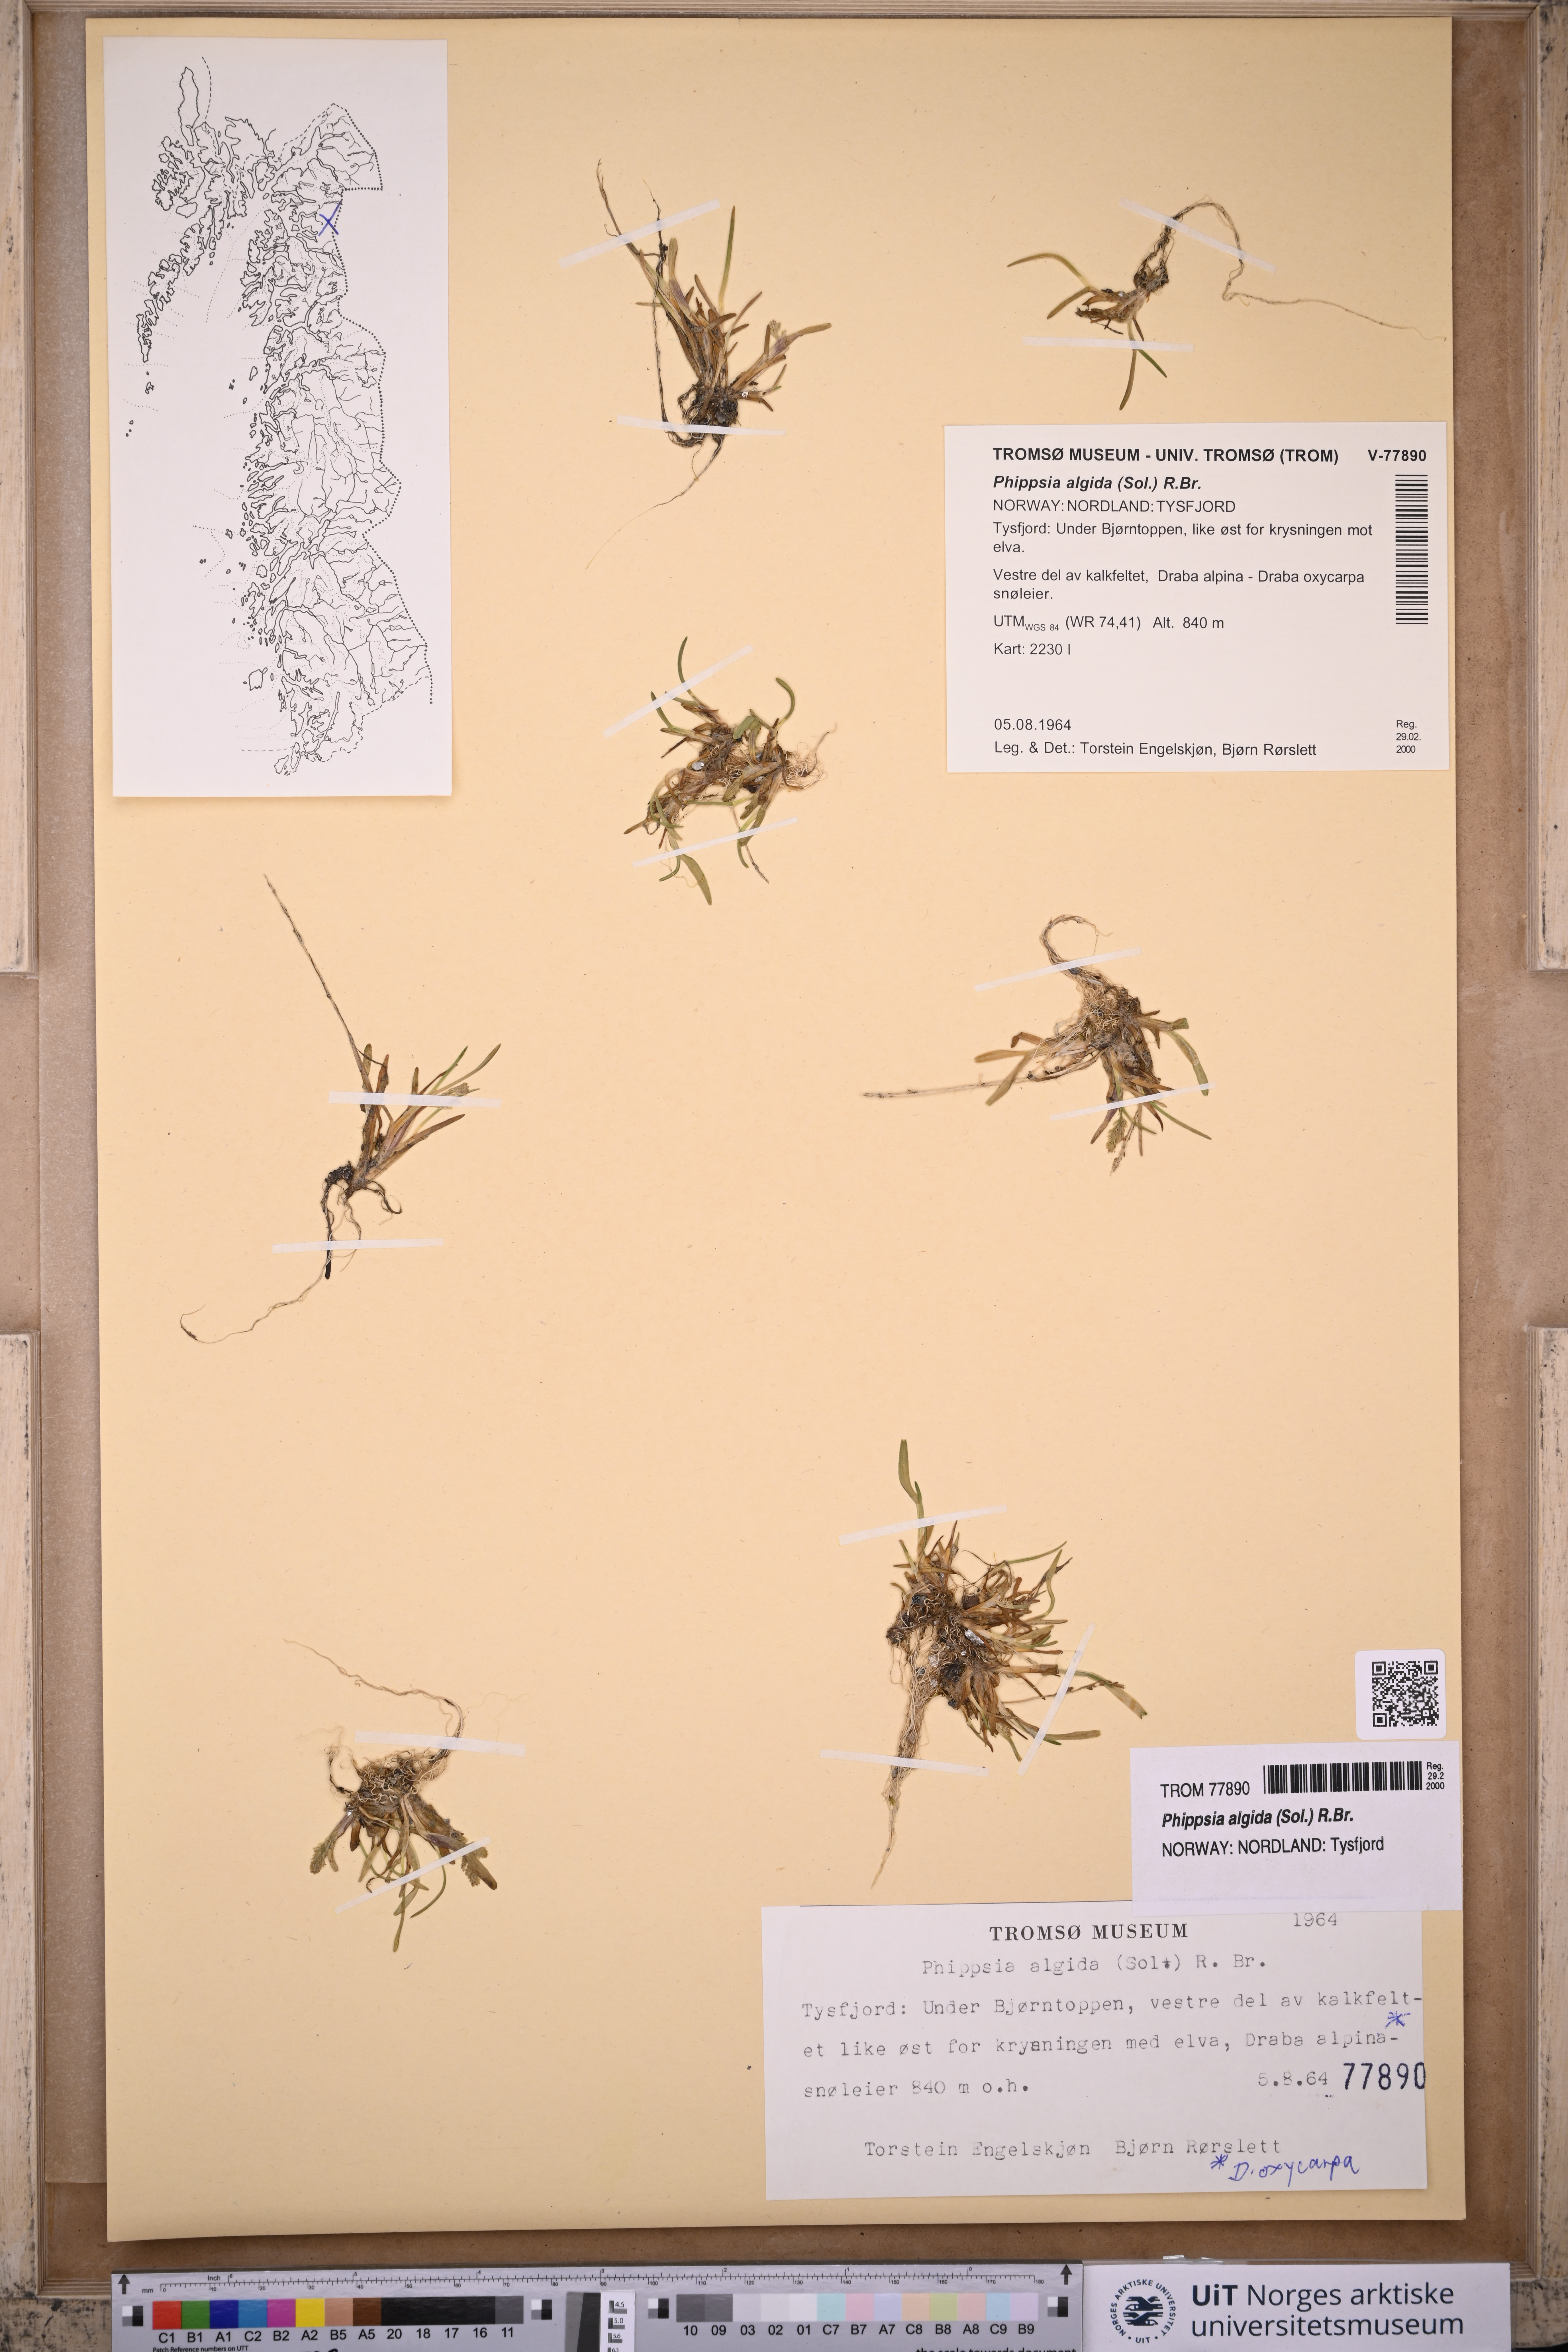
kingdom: Plantae
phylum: Tracheophyta
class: Liliopsida
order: Poales
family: Poaceae
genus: Phippsia
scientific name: Phippsia algida
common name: Ice grass
